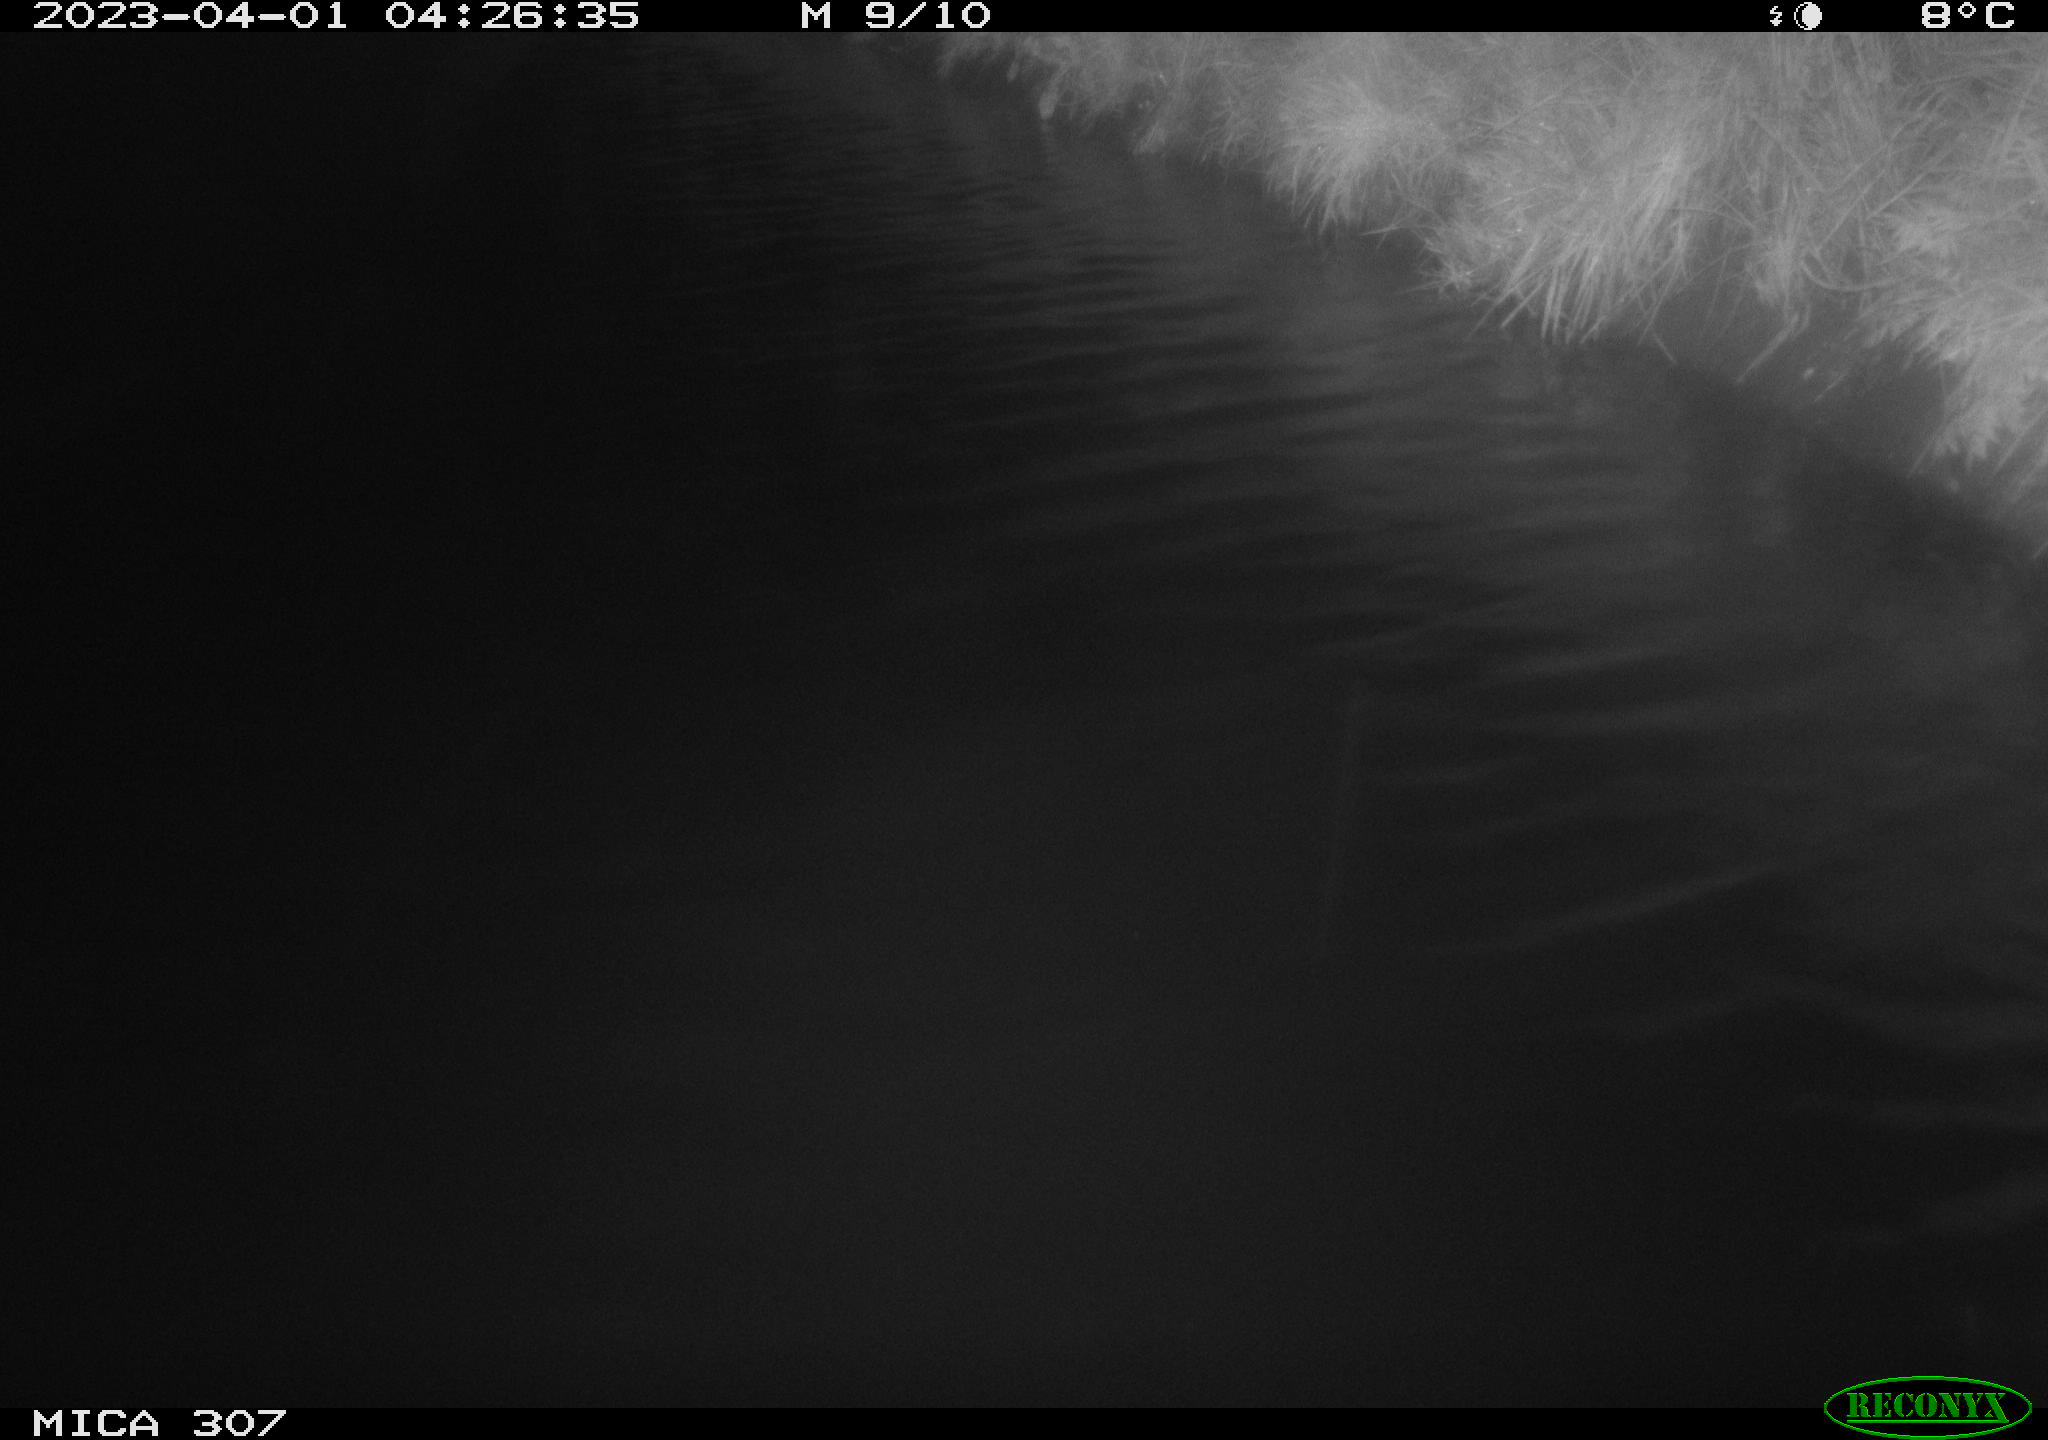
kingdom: Animalia
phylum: Chordata
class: Aves
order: Anseriformes
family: Anatidae
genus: Anas
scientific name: Anas
